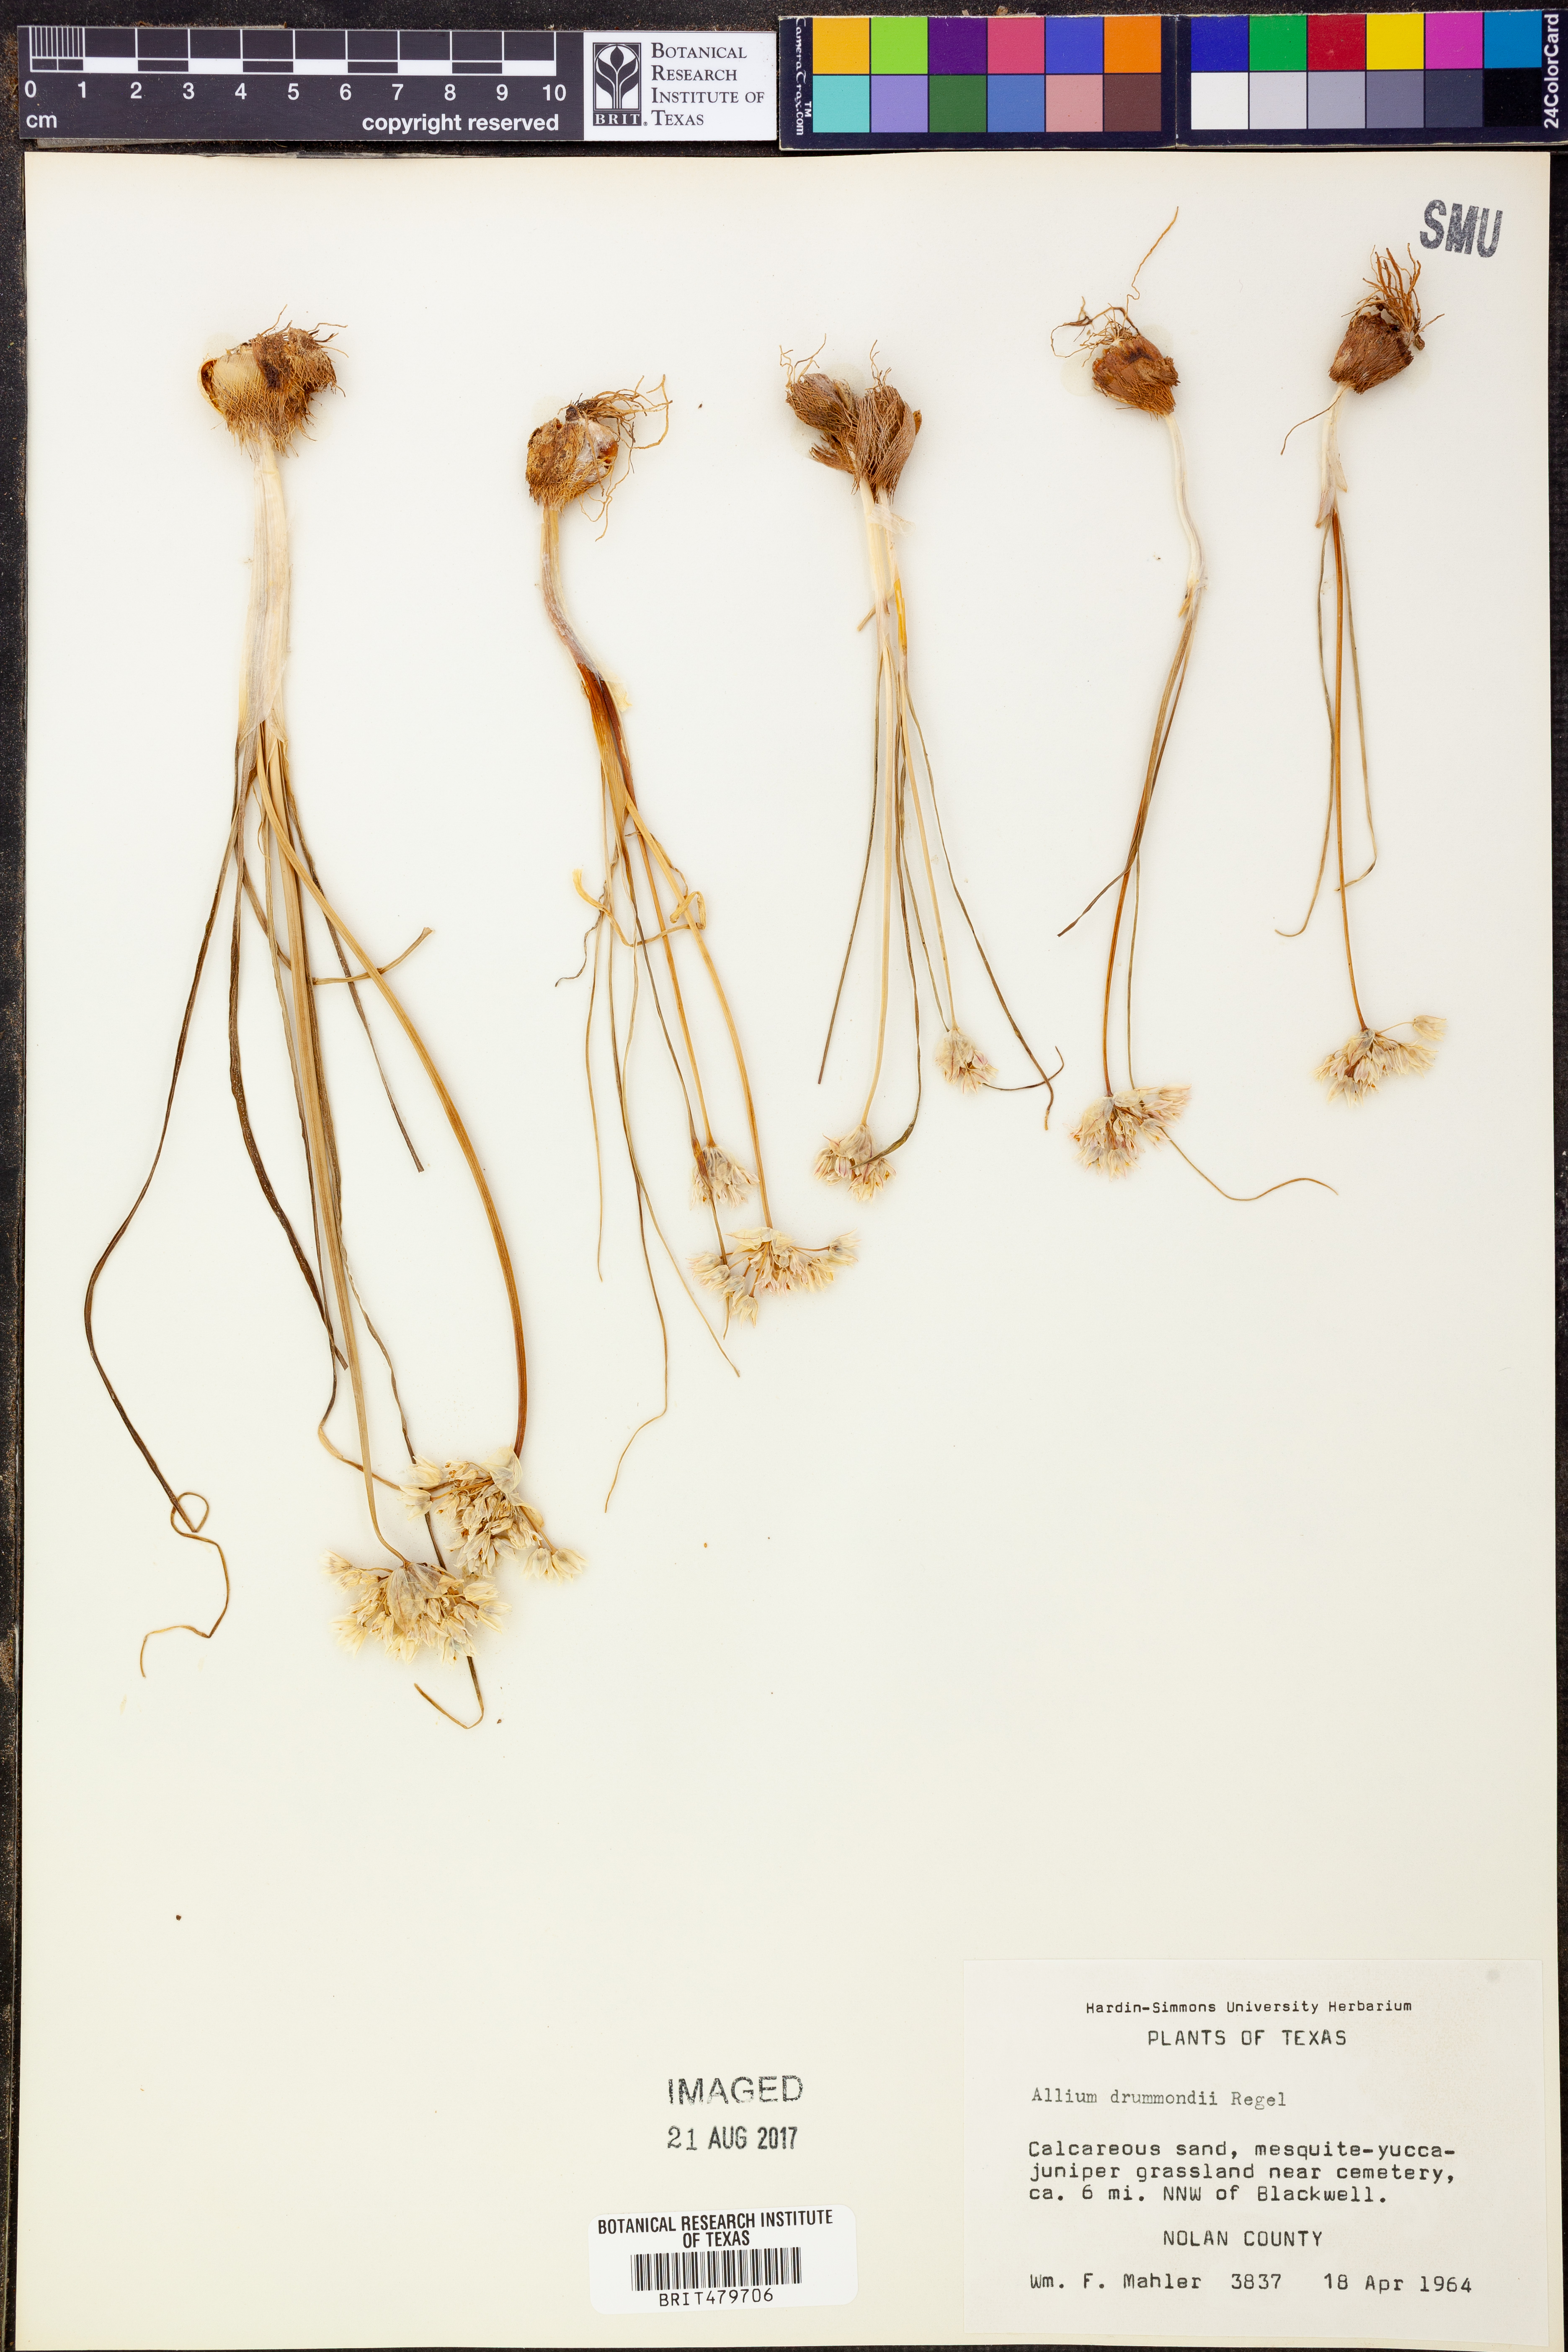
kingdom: Plantae
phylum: Tracheophyta
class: Liliopsida
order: Asparagales
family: Amaryllidaceae
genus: Allium
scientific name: Allium drummondii
